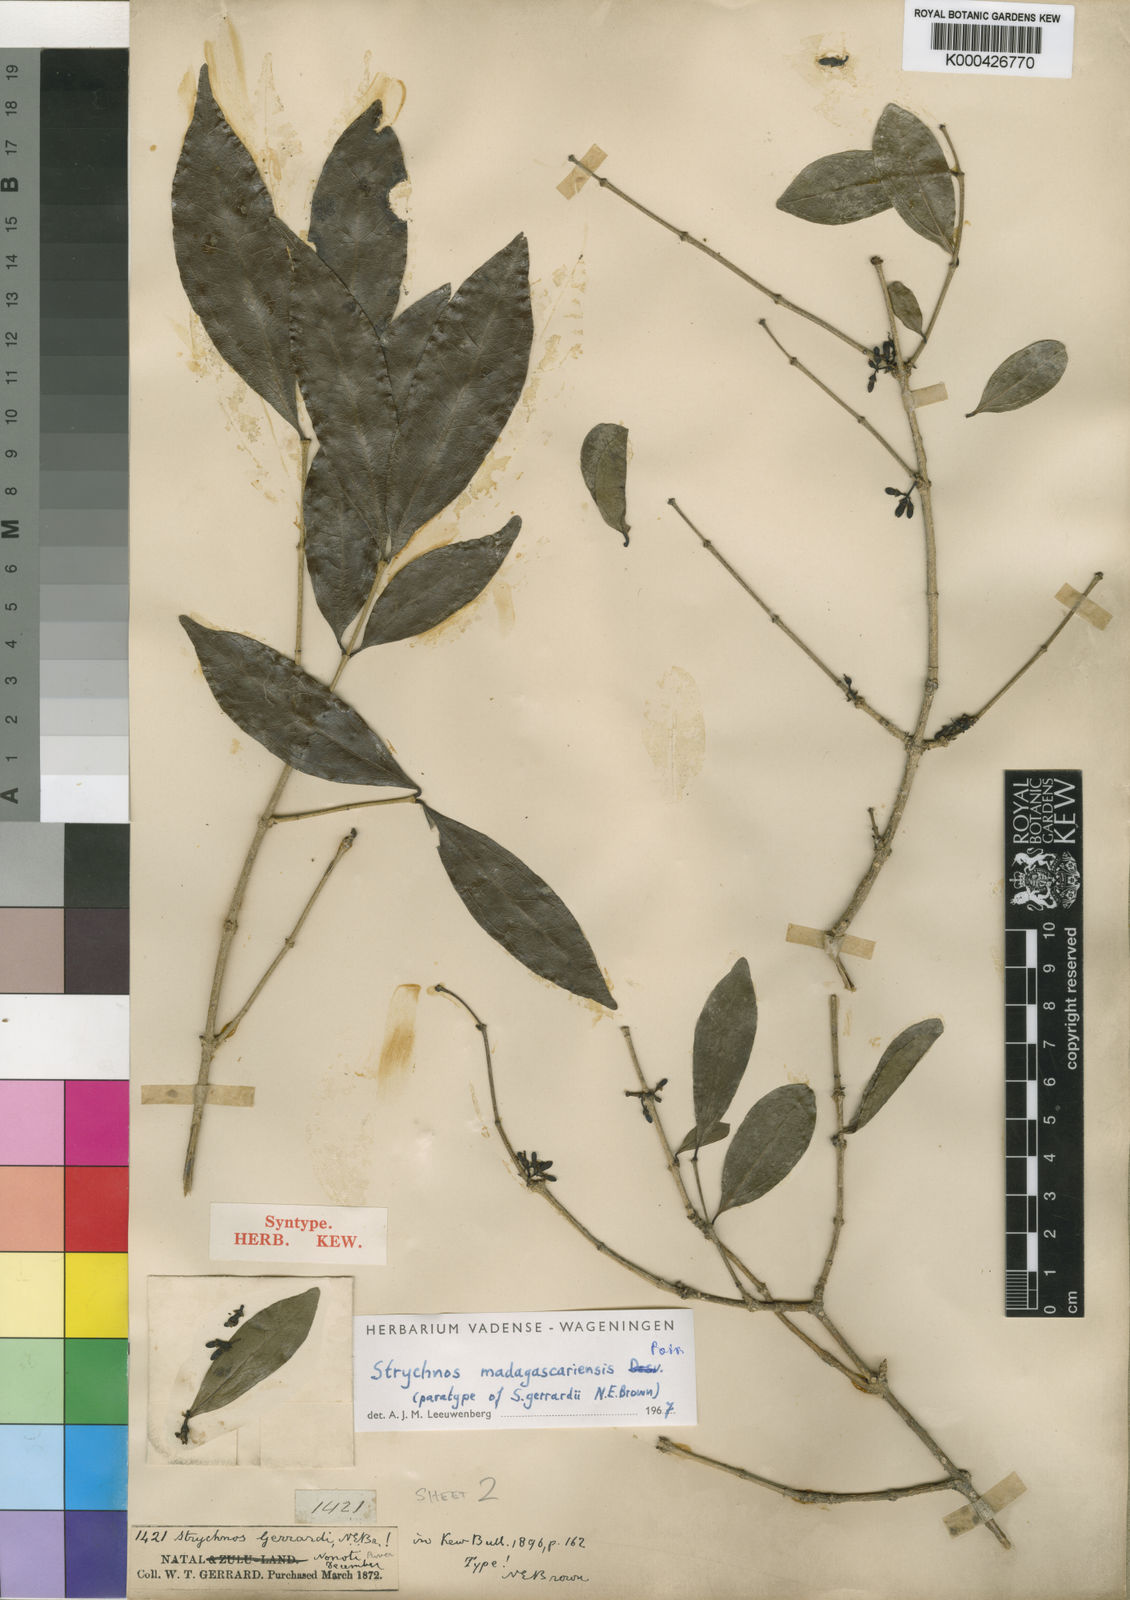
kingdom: Plantae
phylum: Tracheophyta
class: Magnoliopsida
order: Gentianales
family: Loganiaceae
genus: Strychnos
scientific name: Strychnos madagascariensis
